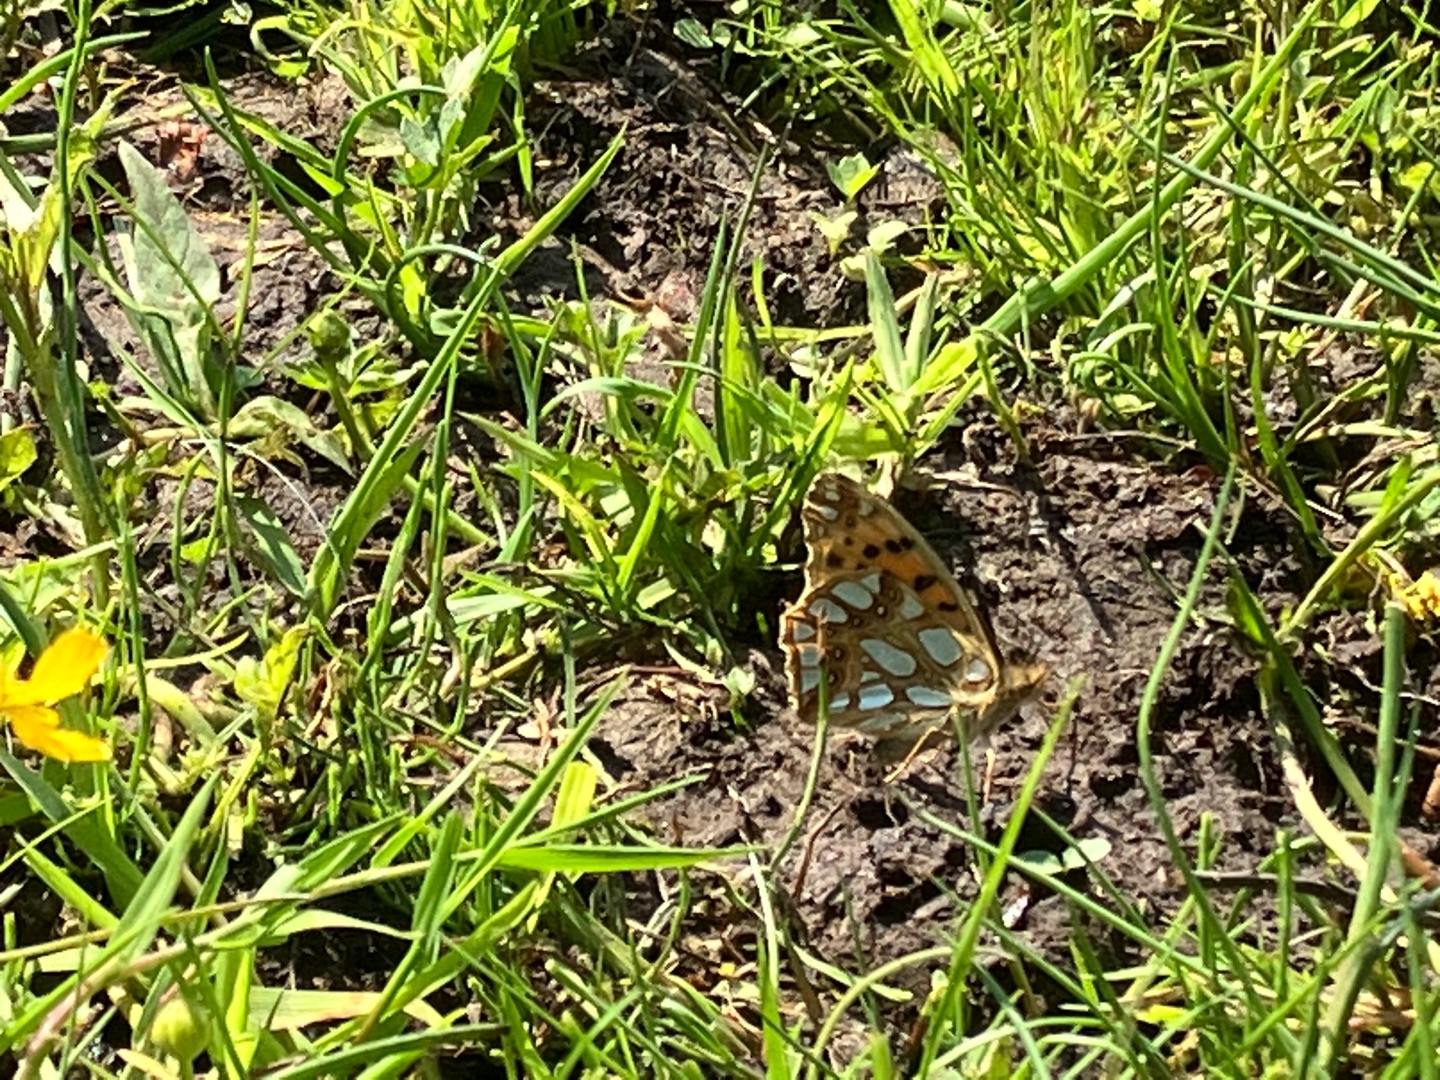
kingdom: Animalia
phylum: Arthropoda
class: Insecta
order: Lepidoptera
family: Nymphalidae
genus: Issoria
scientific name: Issoria lathonia
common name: Storplettet perlemorsommerfugl
